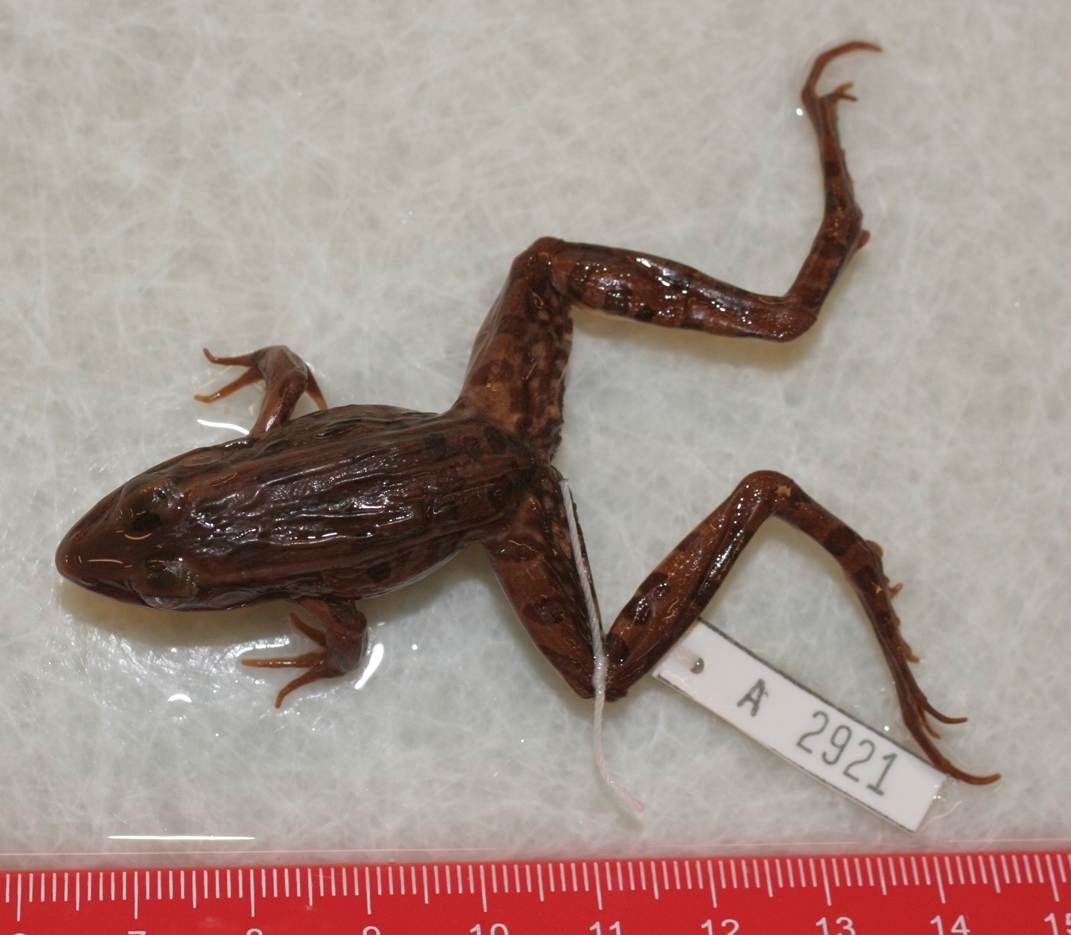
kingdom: Animalia
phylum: Chordata
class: Amphibia
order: Anura
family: Ranidae
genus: Lithobates
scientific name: Lithobates sphenocephalus
